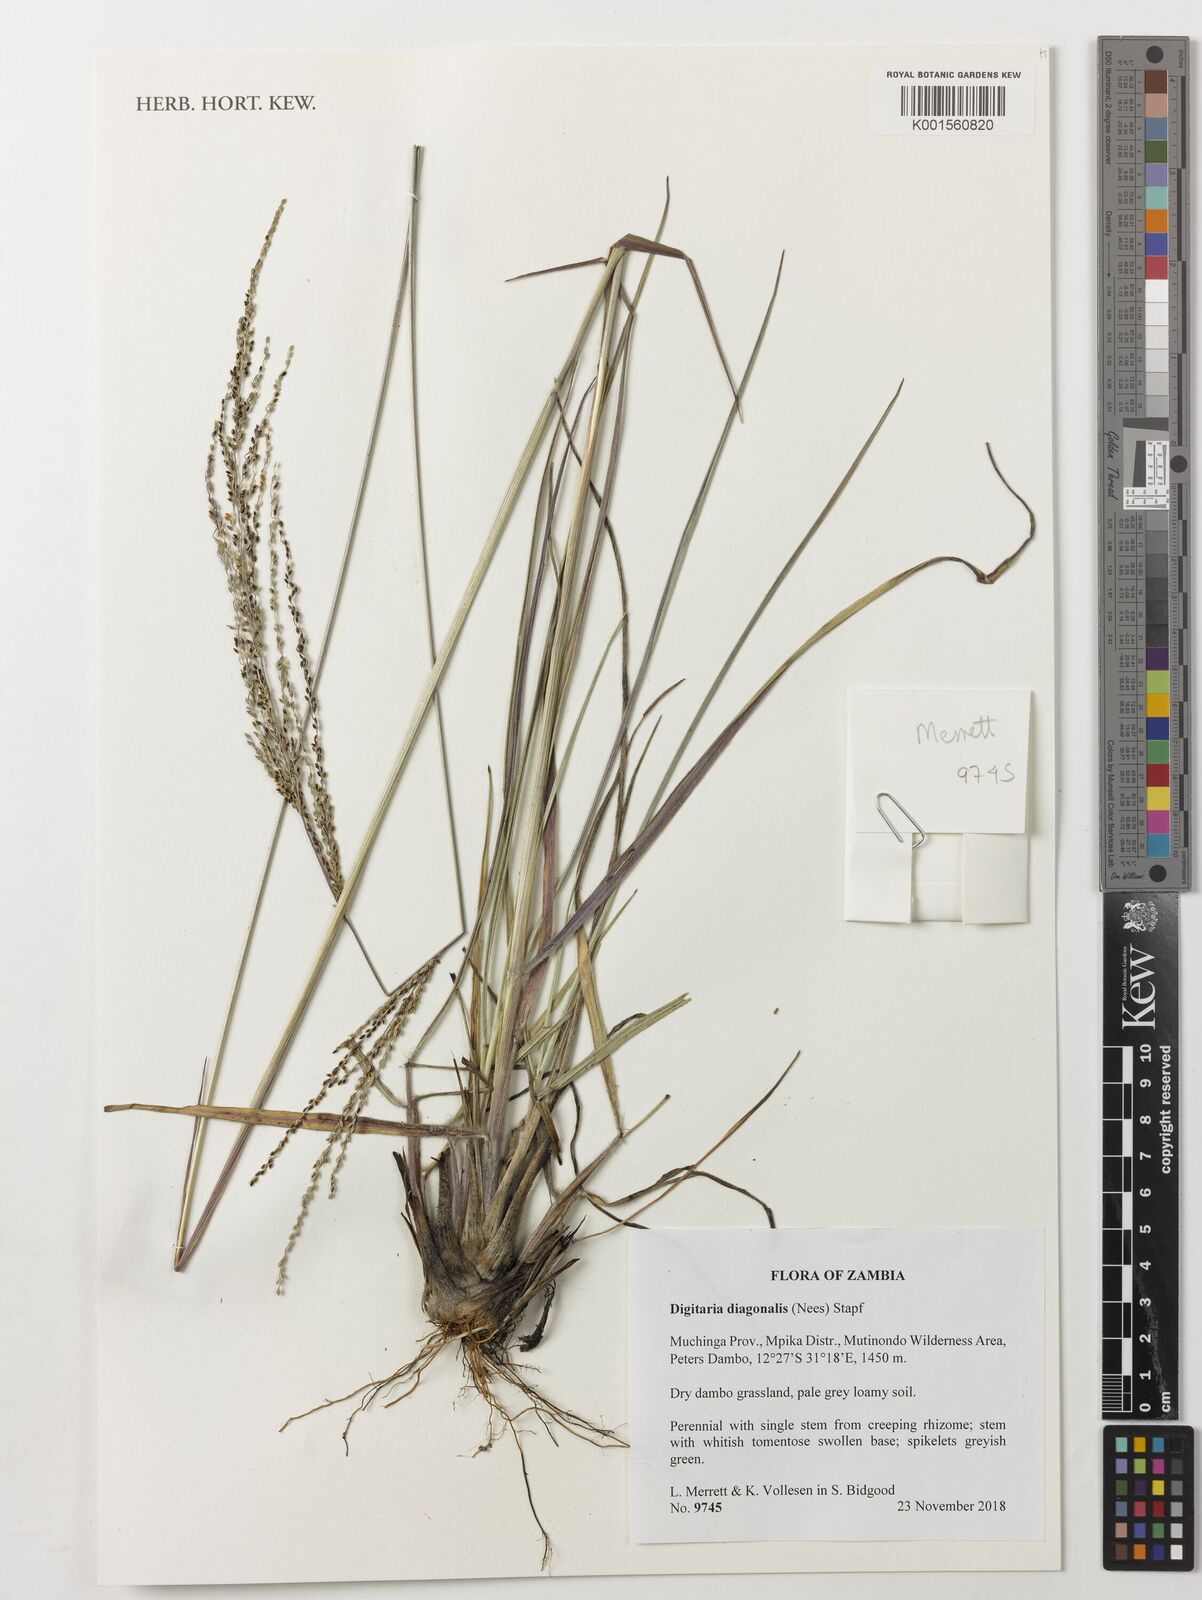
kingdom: Plantae
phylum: Tracheophyta
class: Liliopsida
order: Poales
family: Poaceae
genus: Digitaria
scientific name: Digitaria diagonalis
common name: Brown-seed finger grass
